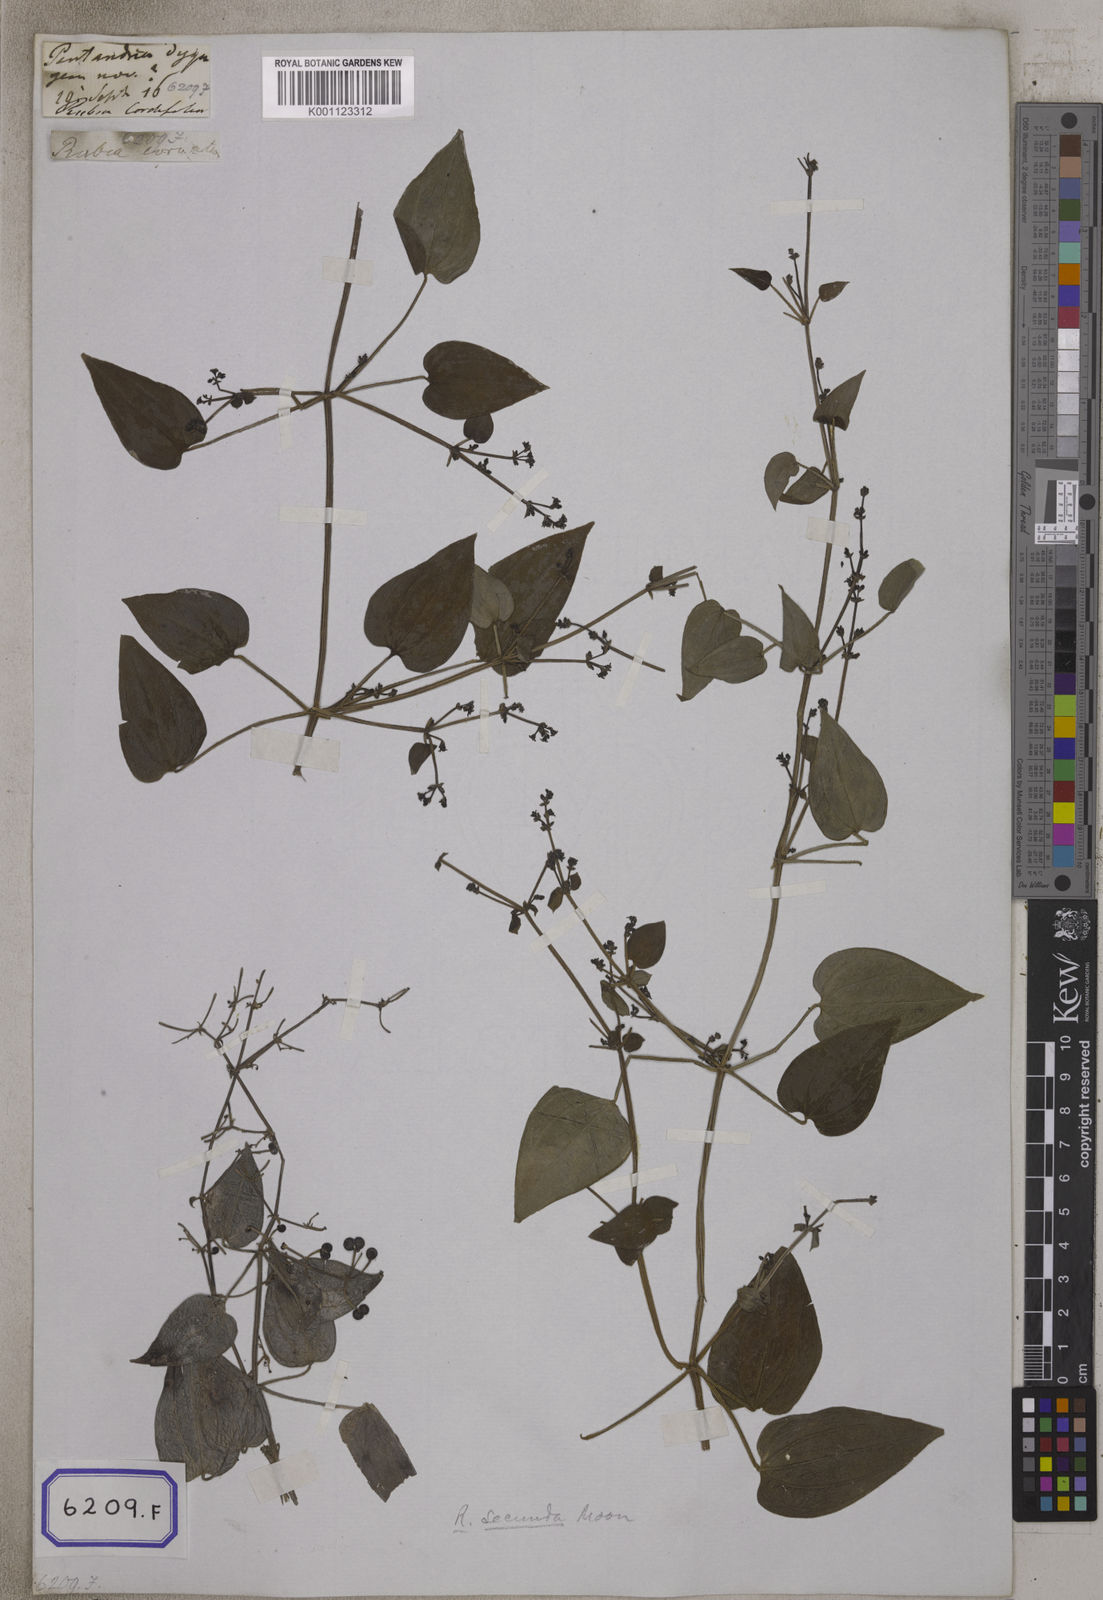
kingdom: Plantae
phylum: Tracheophyta
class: Magnoliopsida
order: Gentianales
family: Rubiaceae
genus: Rubia
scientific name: Rubia cordifolia
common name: Indian madder
